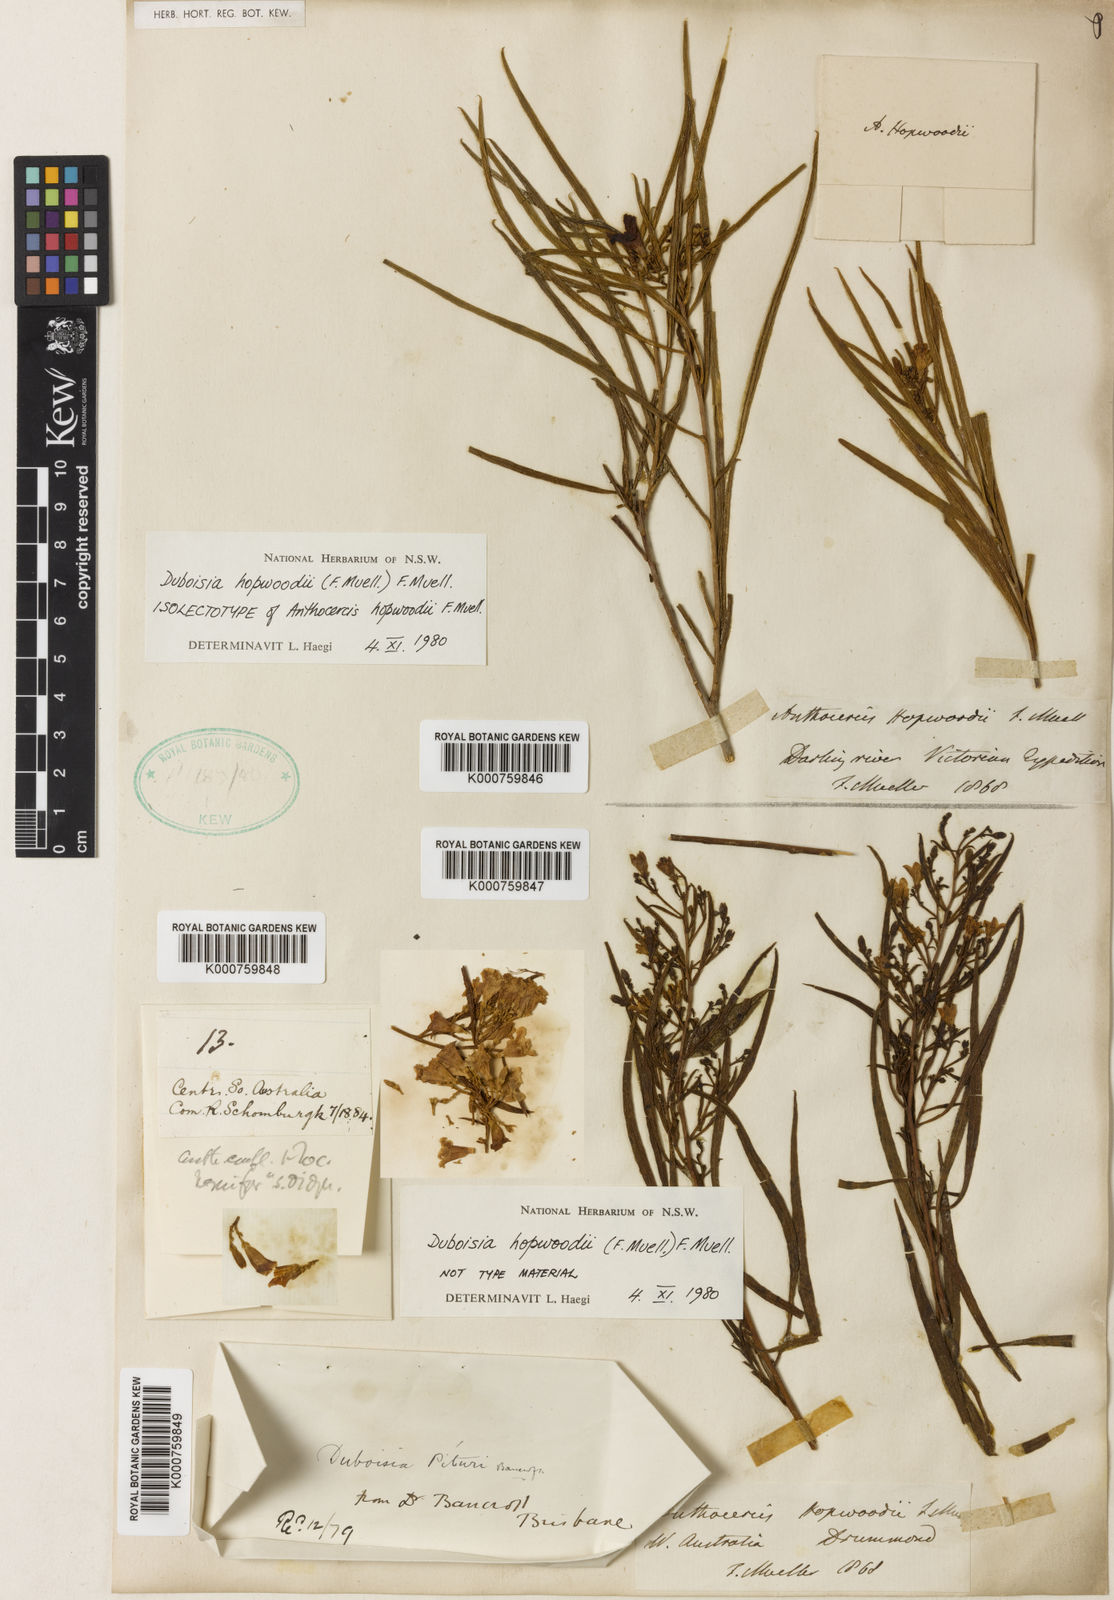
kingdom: Plantae
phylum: Tracheophyta
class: Magnoliopsida
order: Solanales
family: Solanaceae
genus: Duboisia
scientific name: Duboisia hopwoodii
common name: Pituri
